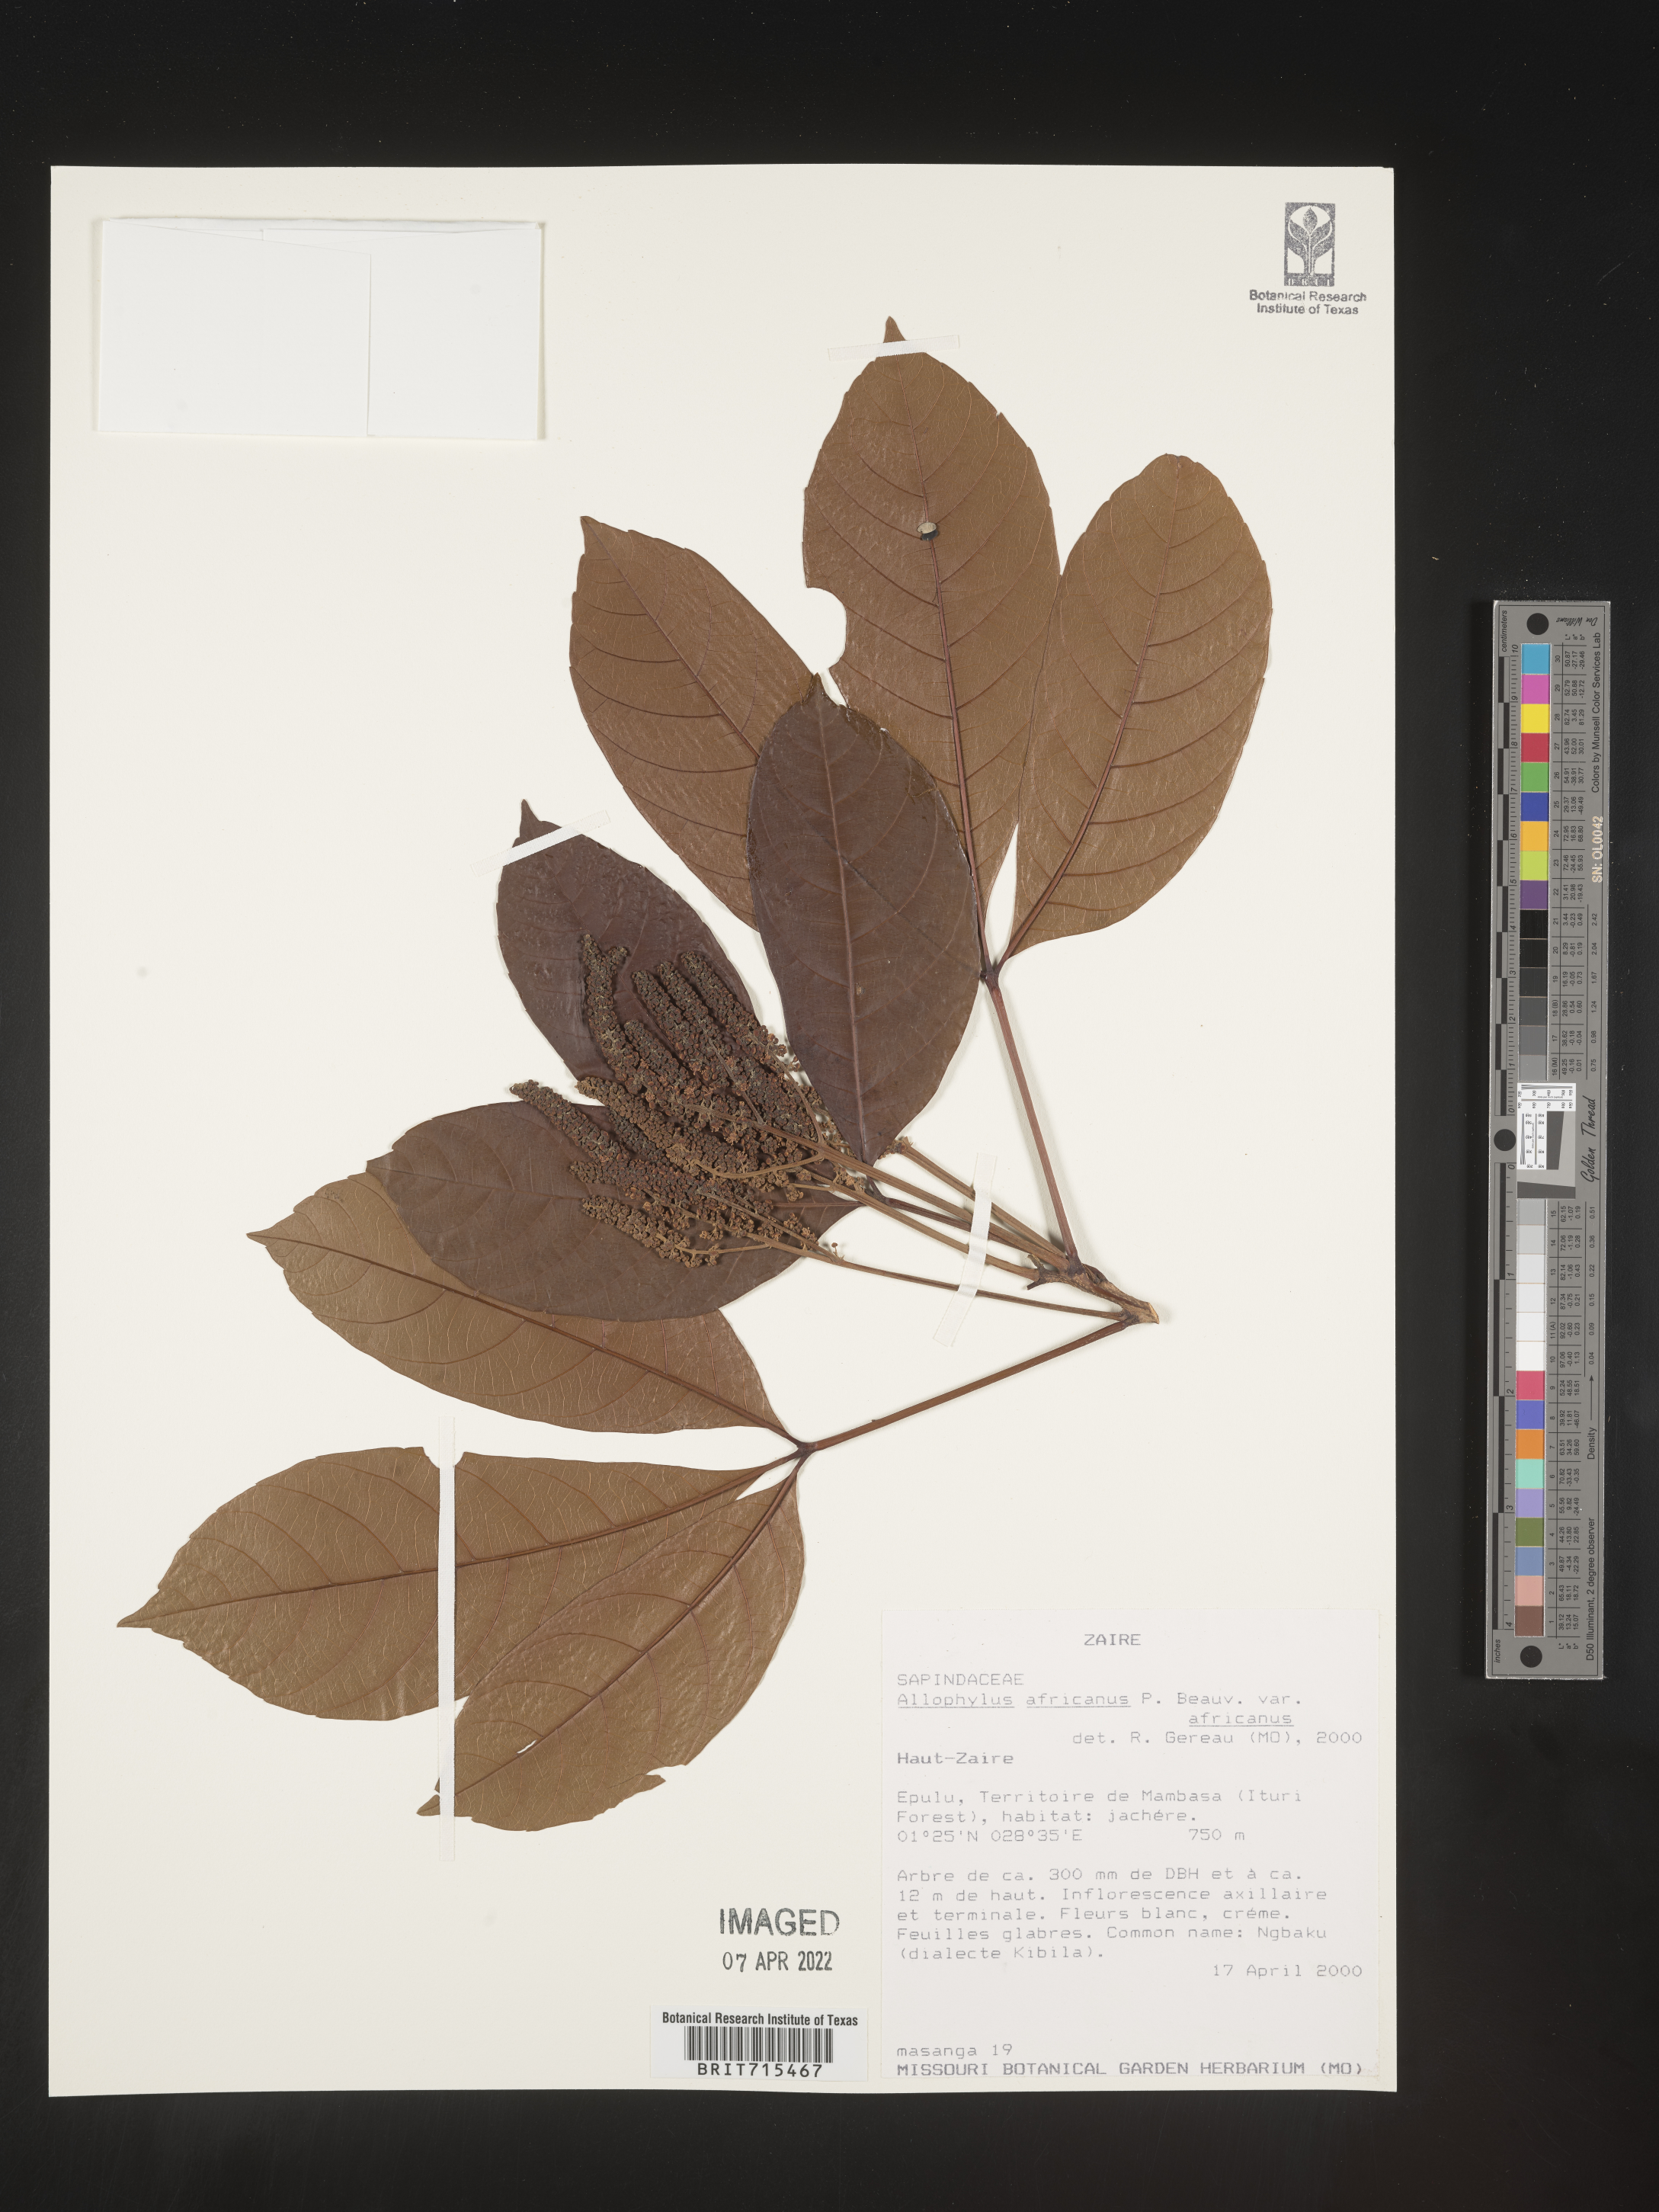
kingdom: Plantae
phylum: Tracheophyta
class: Magnoliopsida
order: Sapindales
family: Sapindaceae
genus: Allophylus
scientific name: Allophylus africanus
